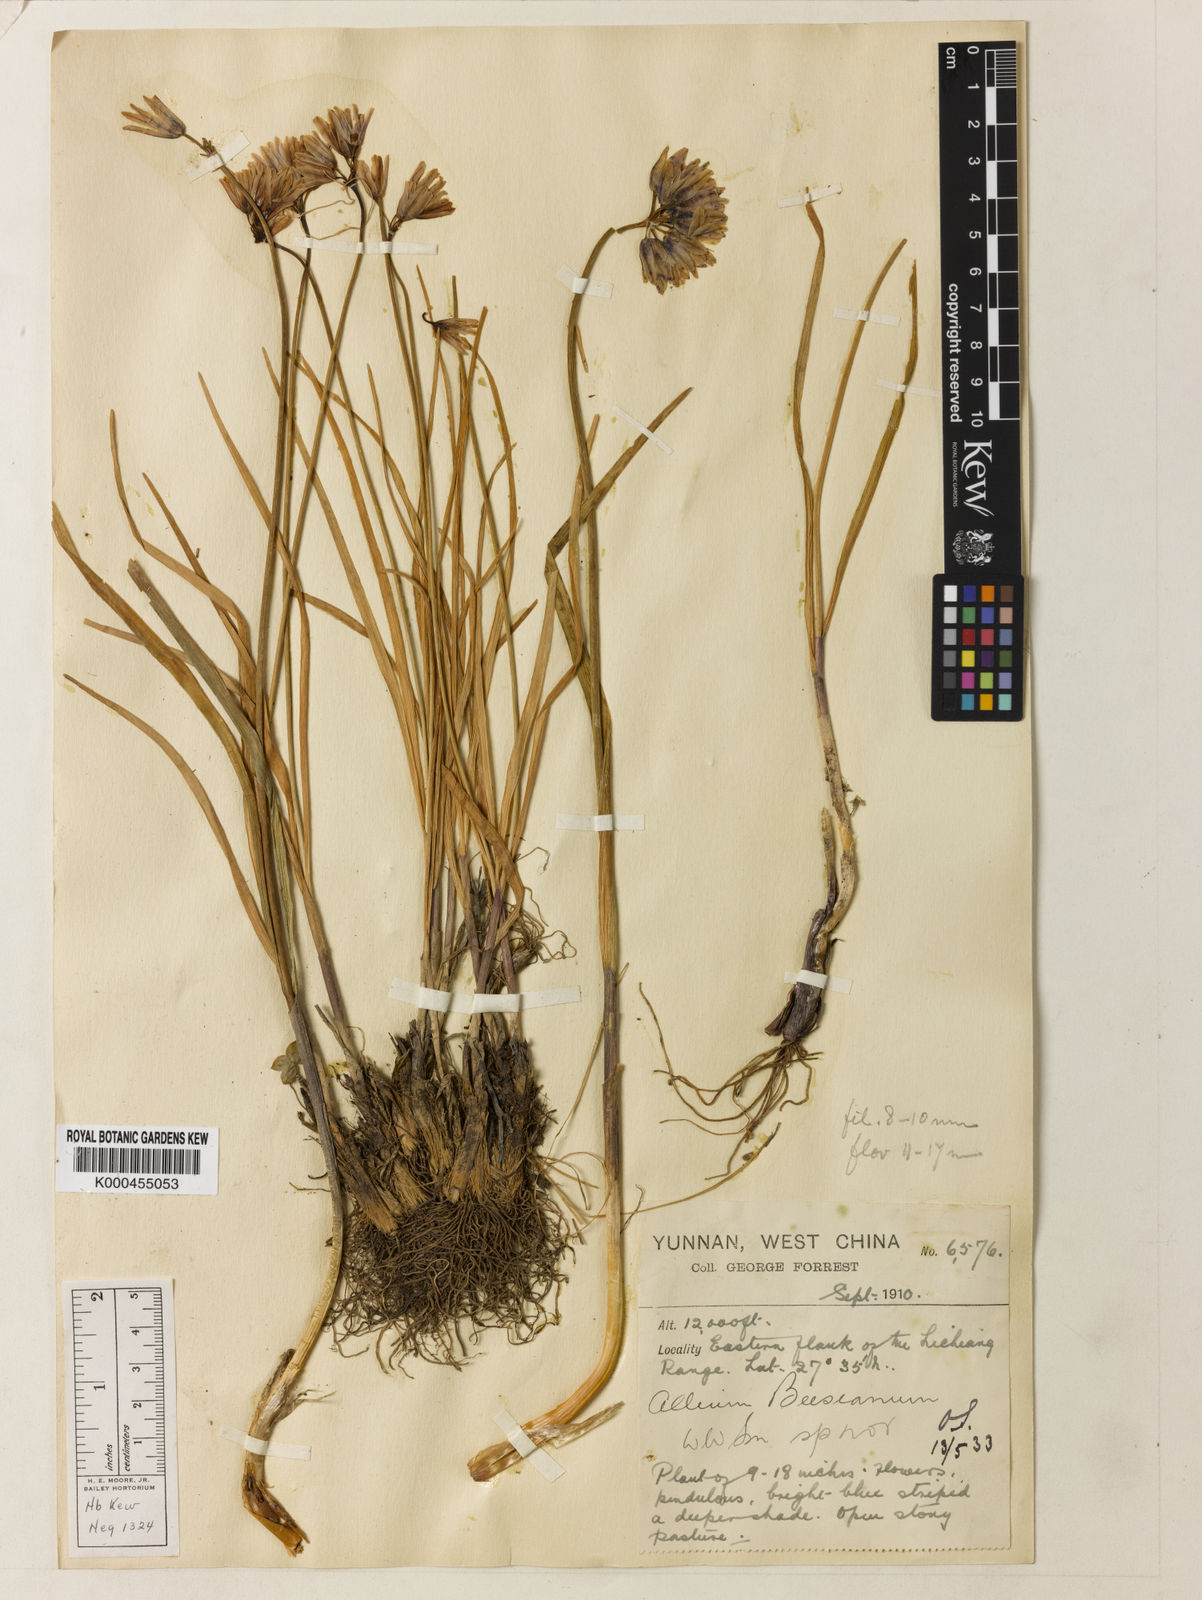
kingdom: Plantae
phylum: Tracheophyta
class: Liliopsida
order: Asparagales
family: Amaryllidaceae
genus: Allium
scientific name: Allium beesianum
